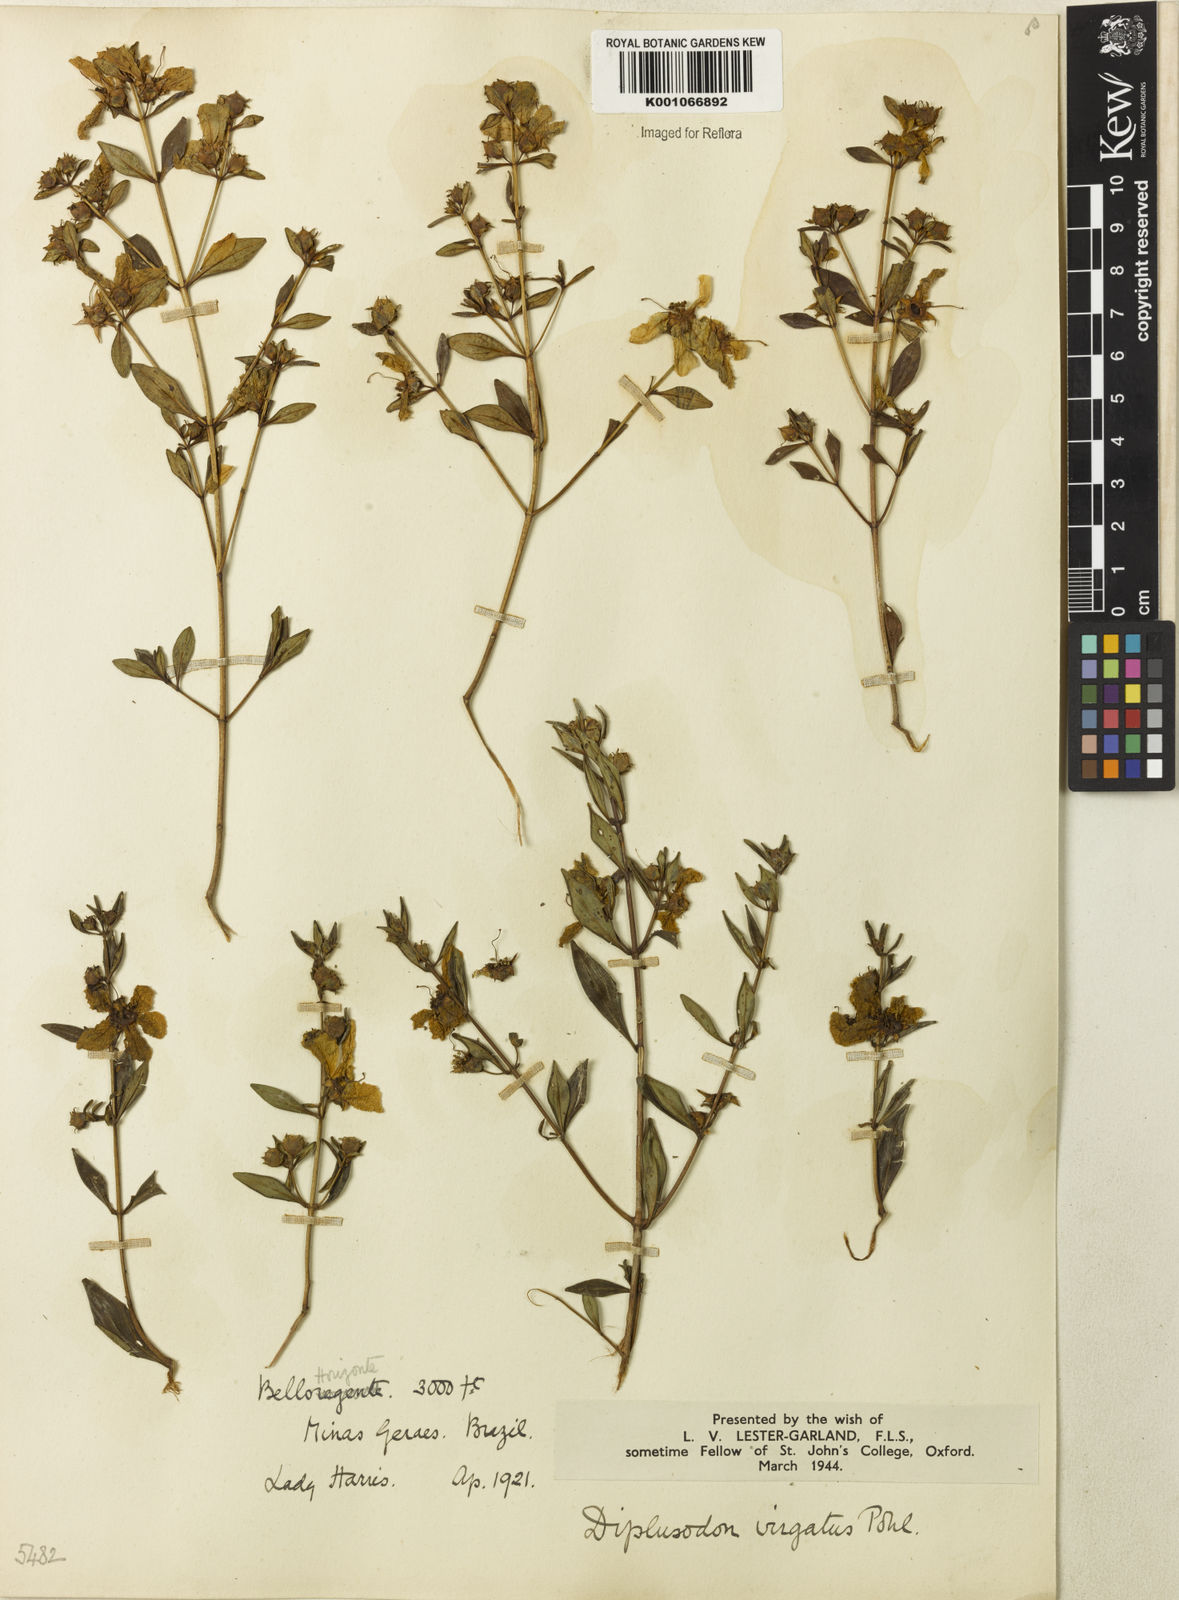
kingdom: Plantae
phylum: Tracheophyta
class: Magnoliopsida
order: Myrtales
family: Lythraceae
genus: Diplusodon
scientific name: Diplusodon virgatus
